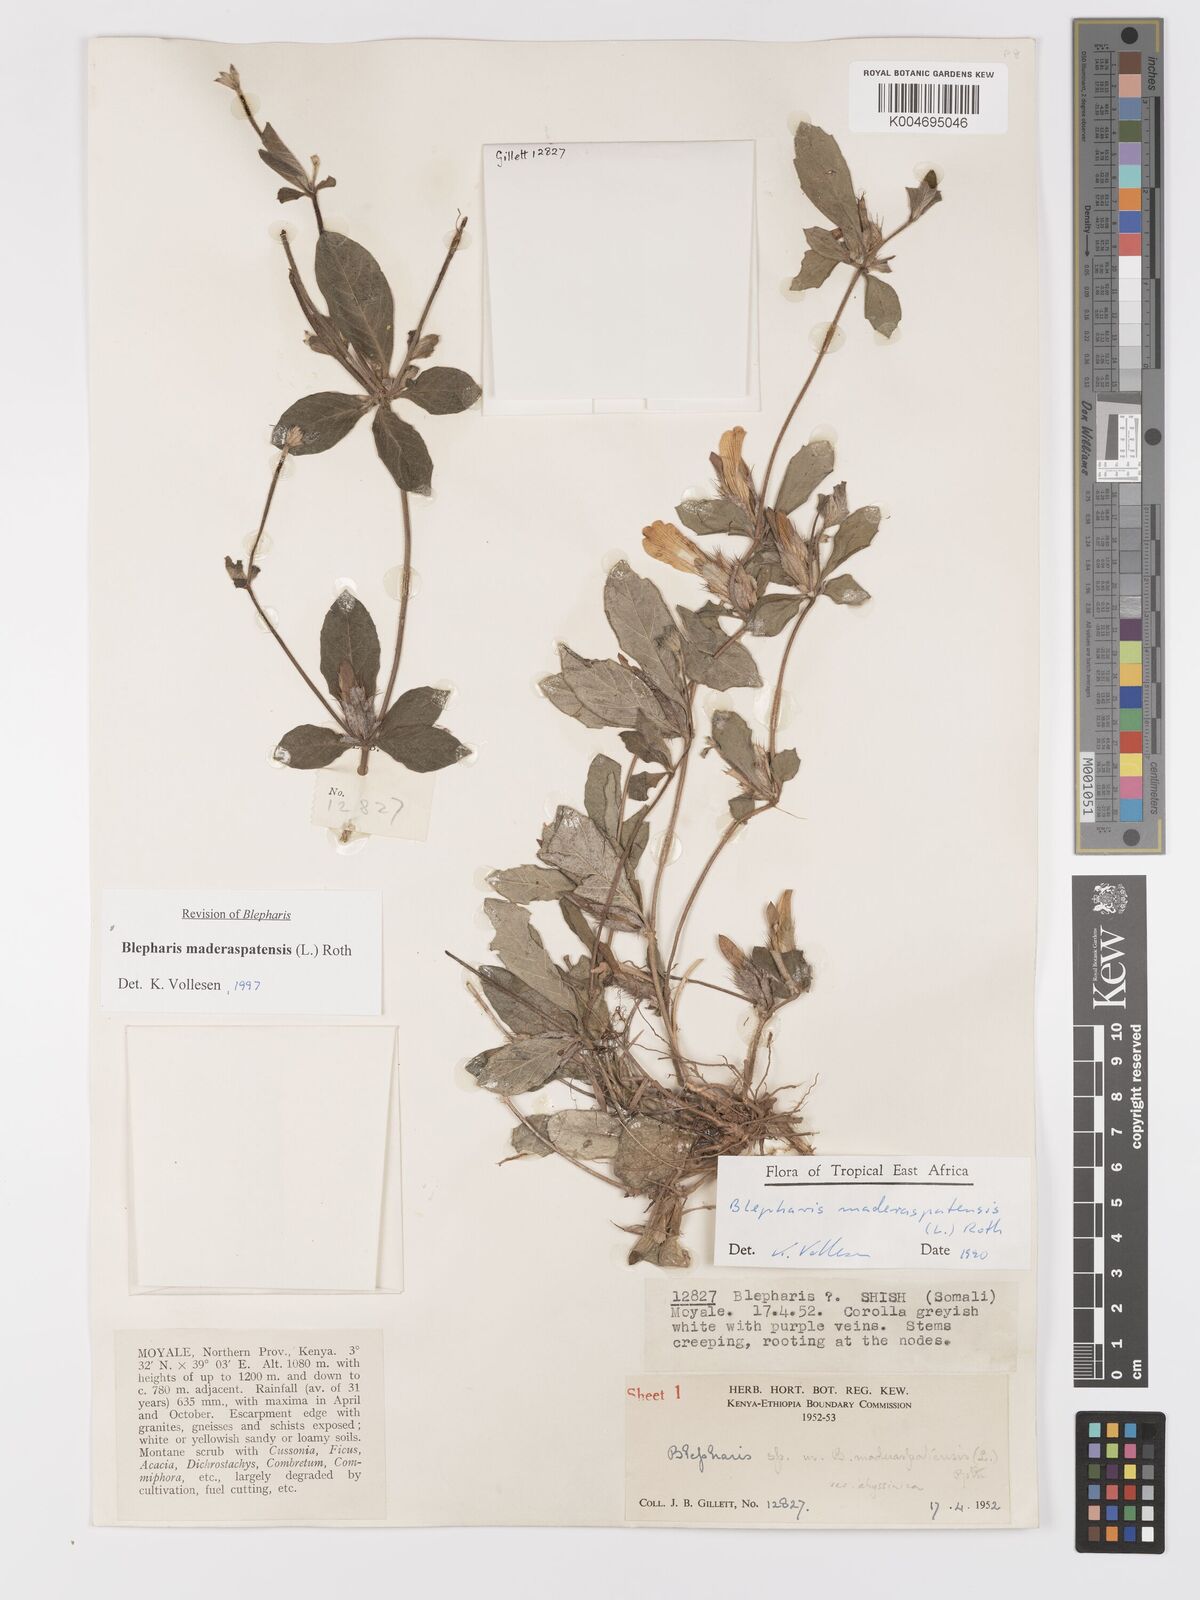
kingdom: Plantae
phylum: Tracheophyta
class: Magnoliopsida
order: Lamiales
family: Acanthaceae
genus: Blepharis
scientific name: Blepharis maderaspatensis
